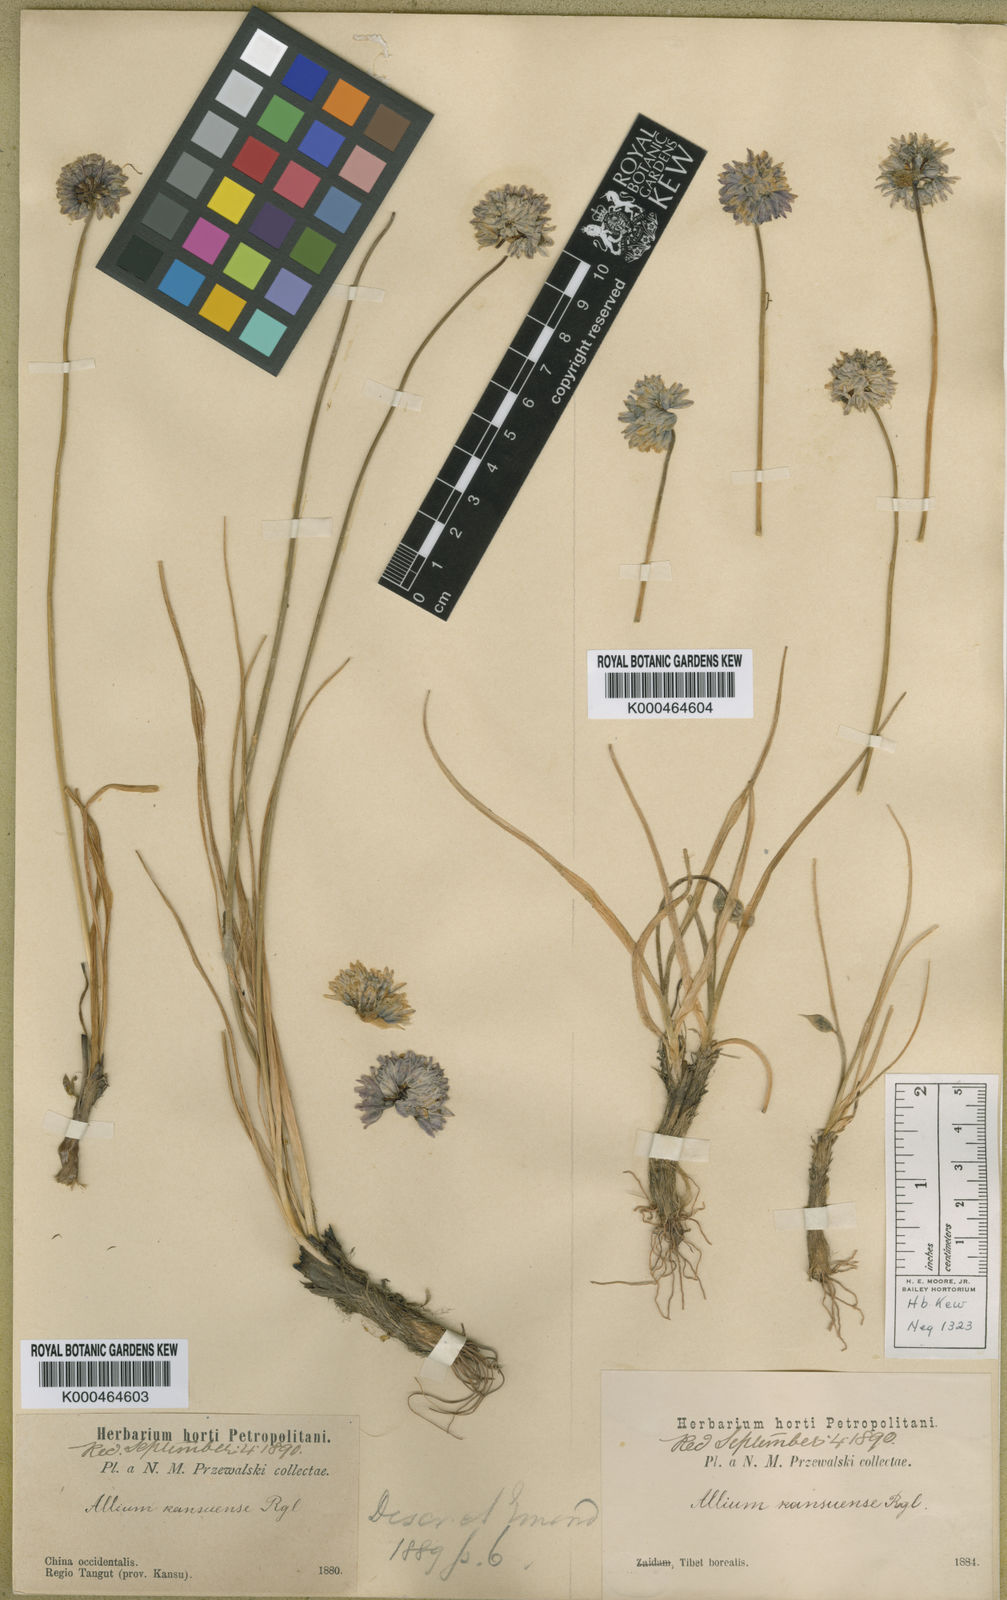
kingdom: Plantae
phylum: Tracheophyta
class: Liliopsida
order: Asparagales
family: Amaryllidaceae
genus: Allium
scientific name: Allium sikkimense
